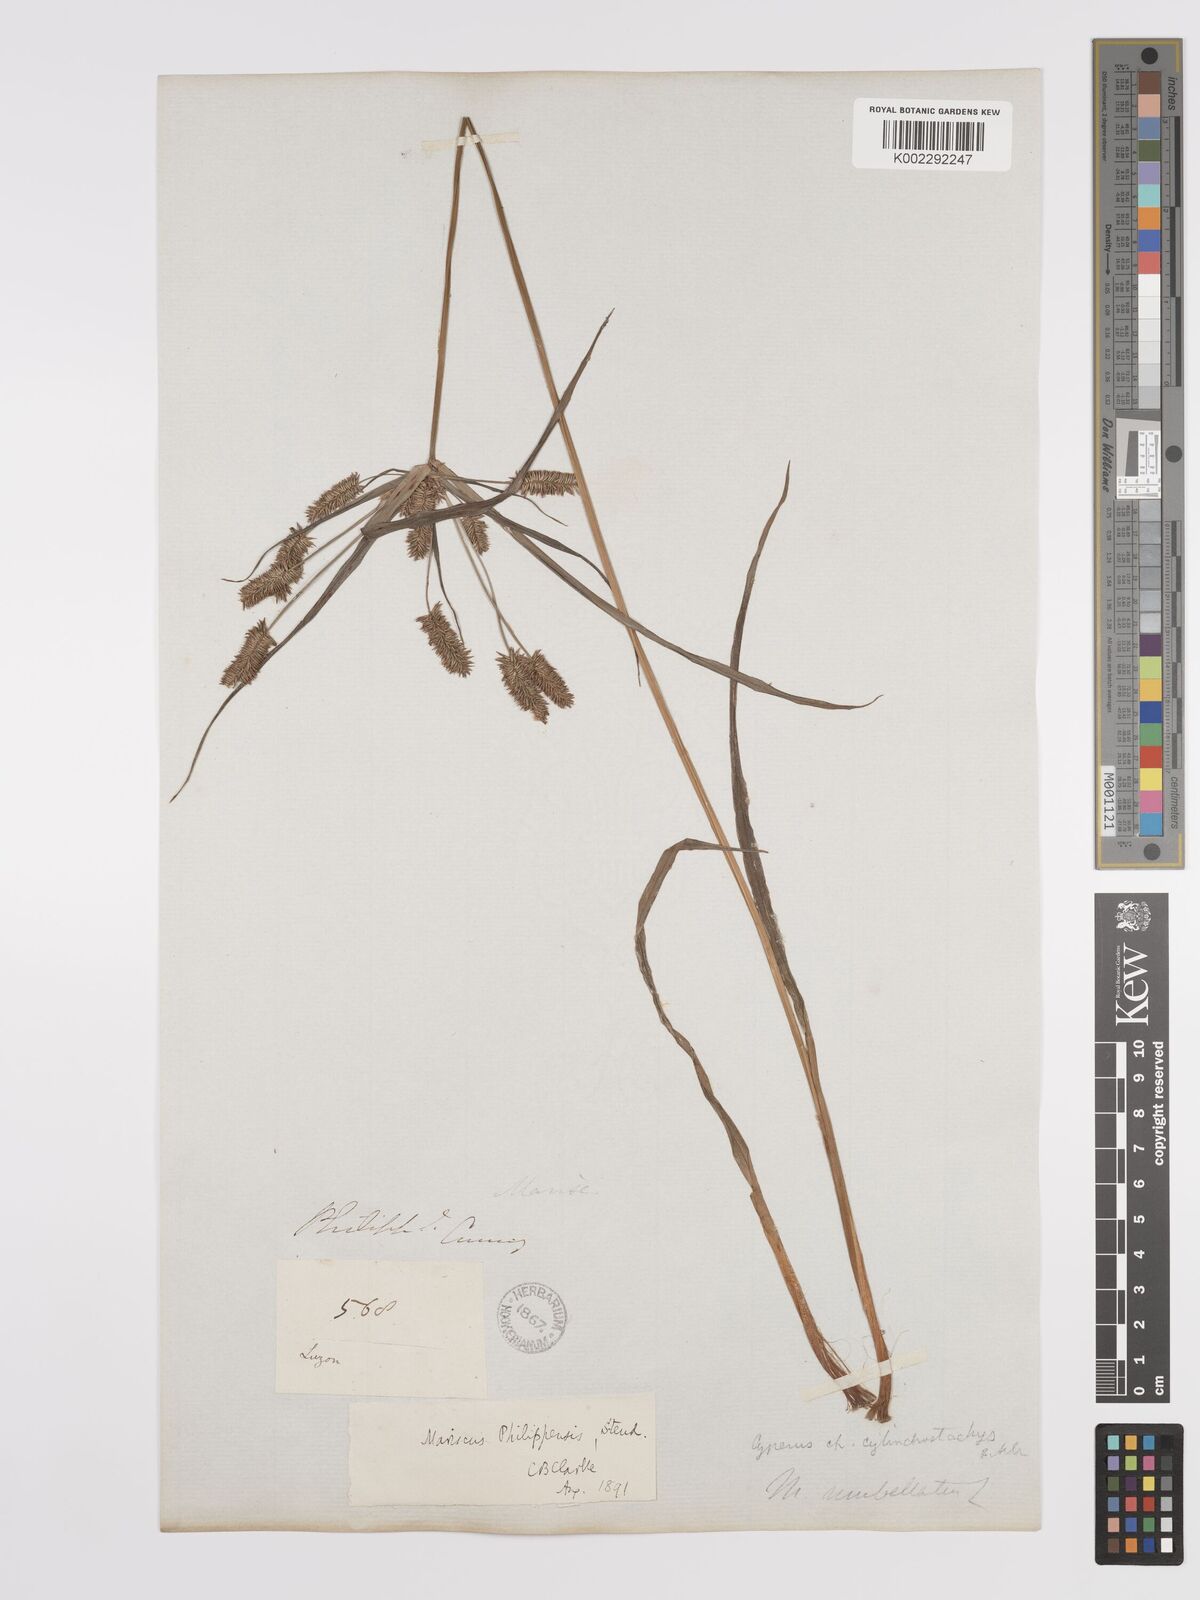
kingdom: Plantae
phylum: Tracheophyta
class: Liliopsida
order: Poales
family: Cyperaceae
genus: Cyperus
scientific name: Cyperus cyperoides
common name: Pacific island flat sedge
